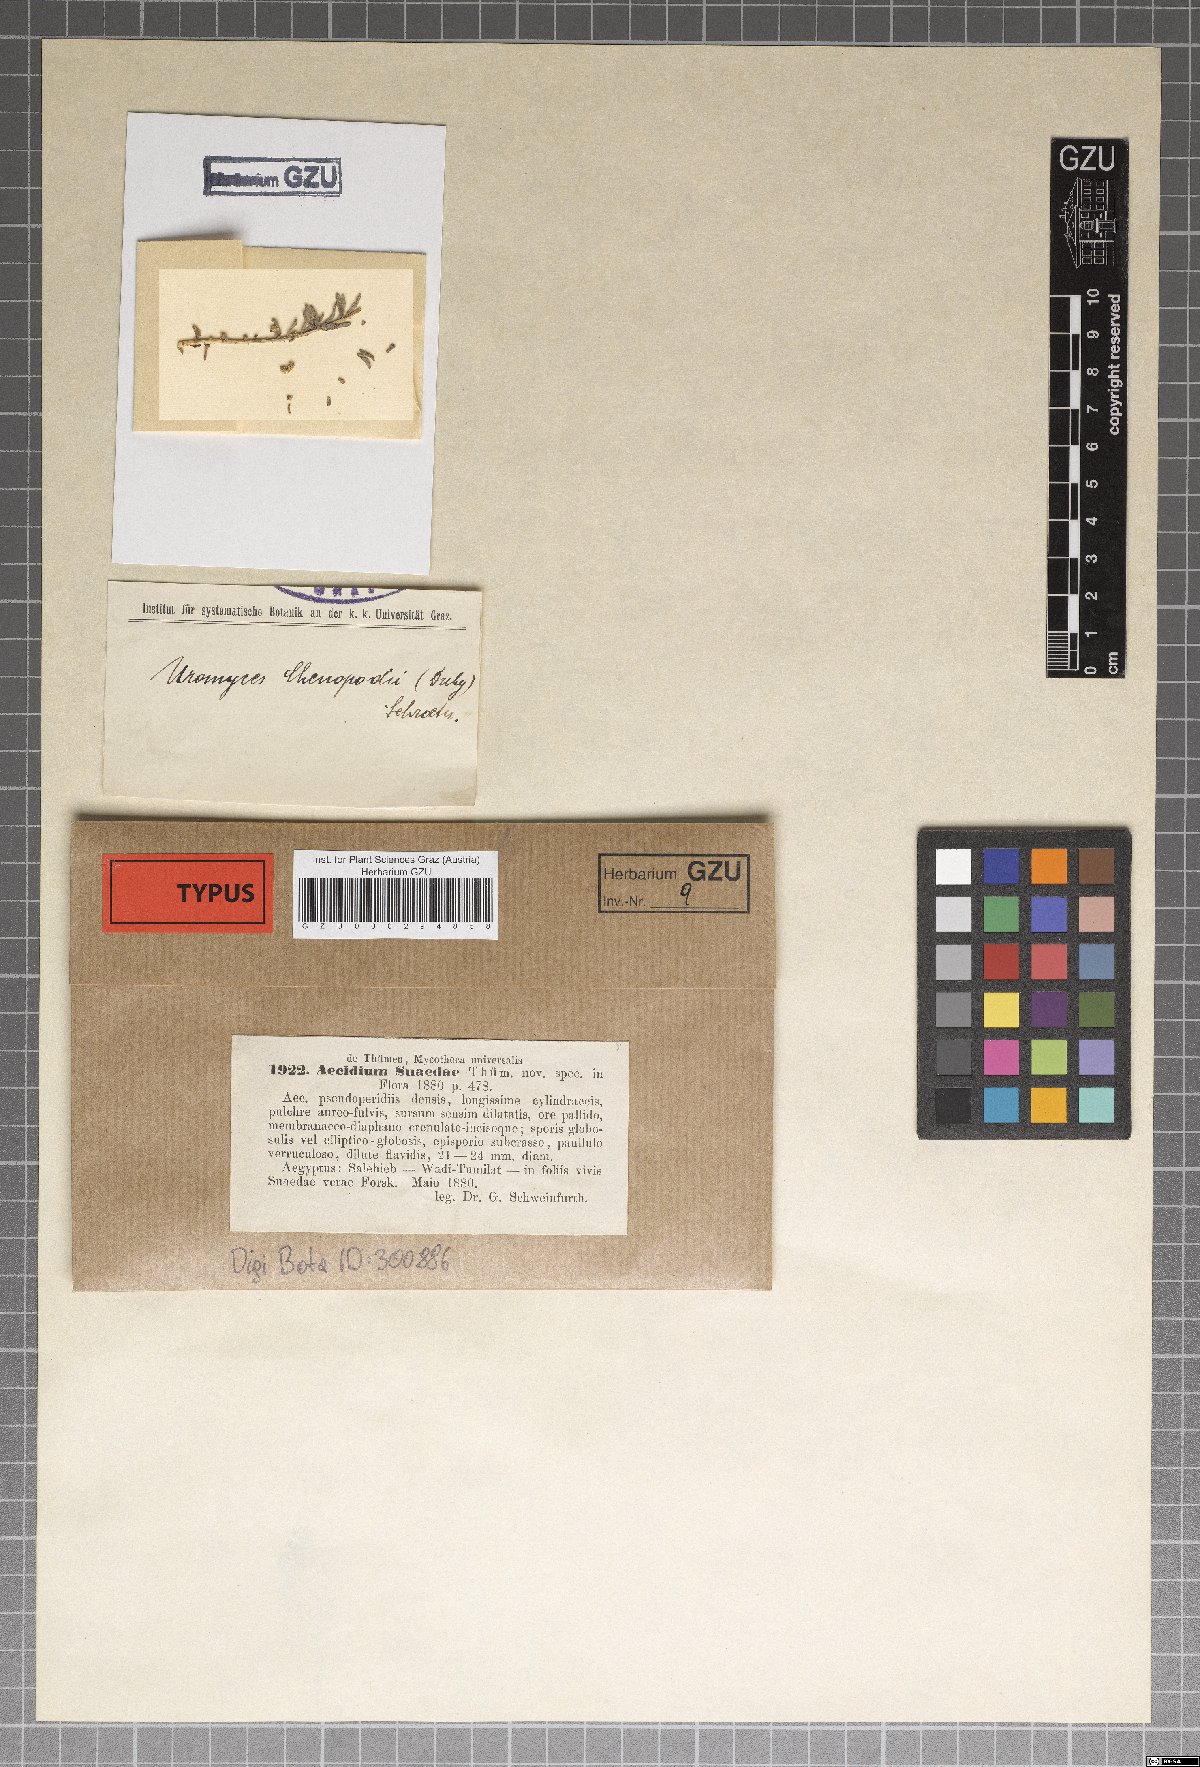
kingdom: Fungi
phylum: Basidiomycota
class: Pucciniomycetes
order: Pucciniales
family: Pucciniaceae
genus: Aecidium
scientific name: Aecidium
